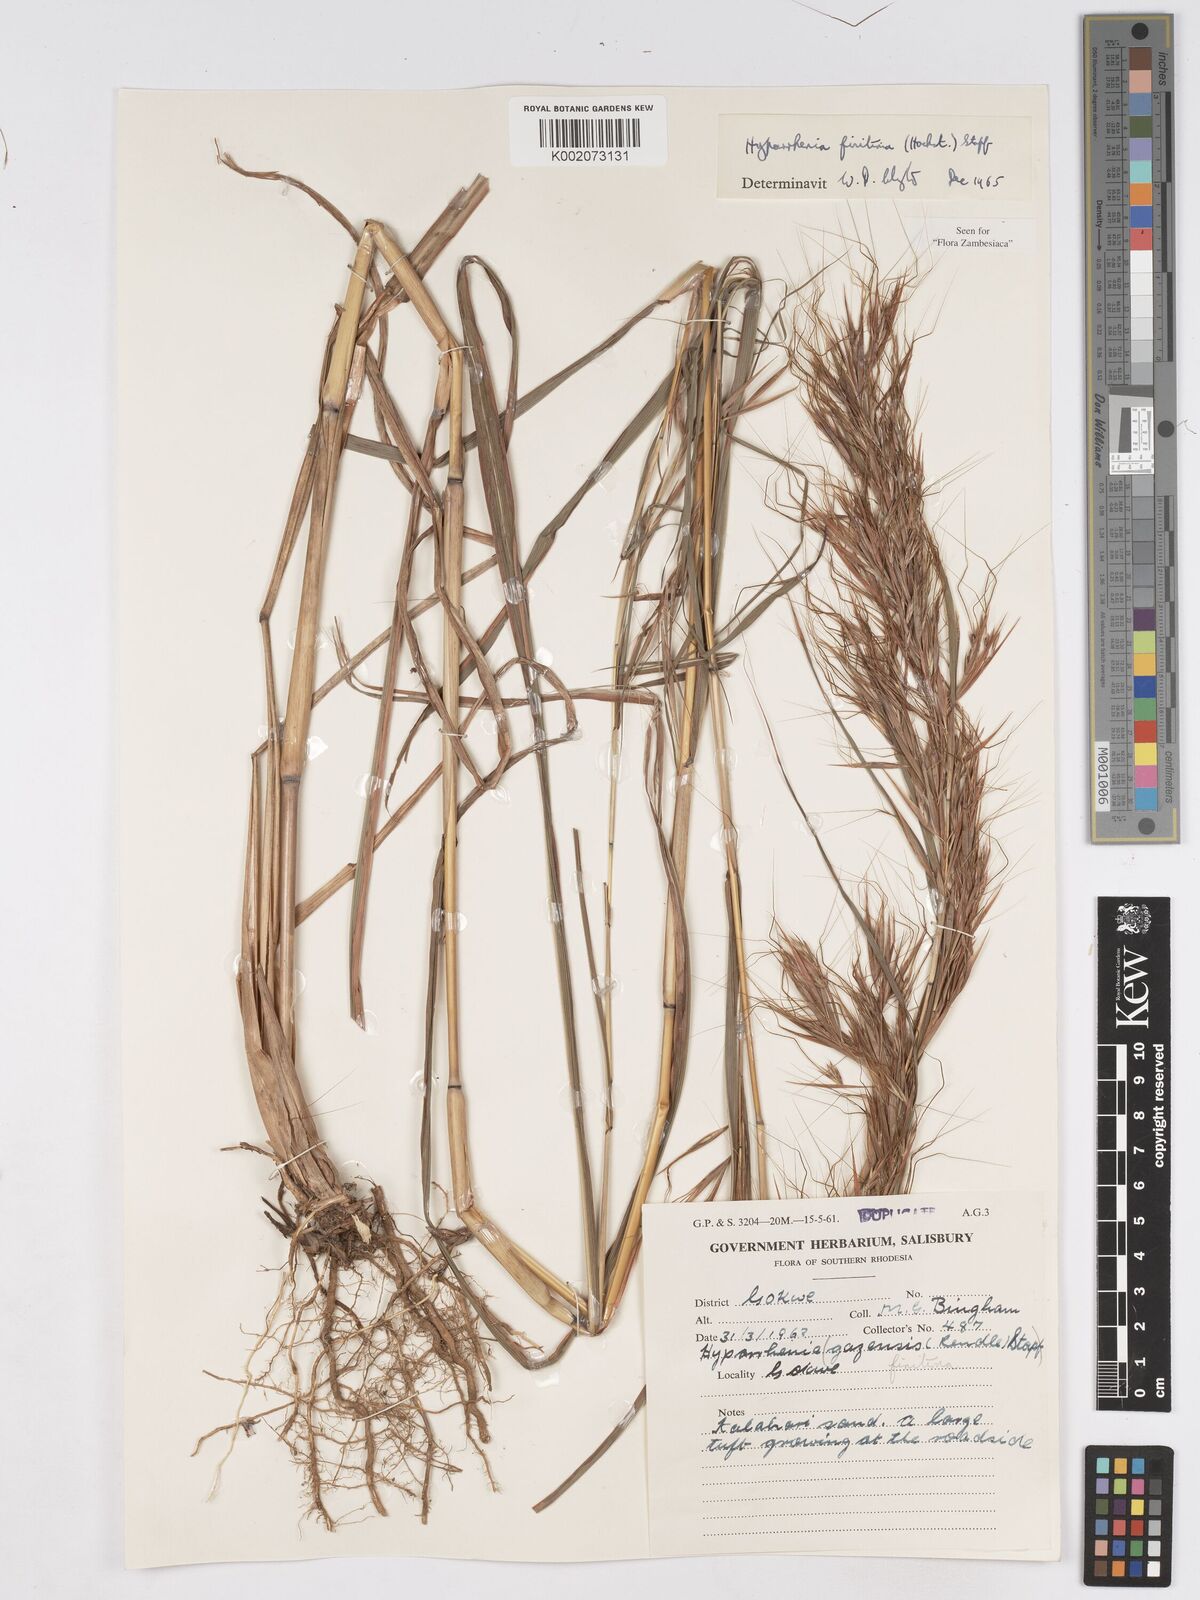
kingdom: Plantae
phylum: Tracheophyta
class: Liliopsida
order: Poales
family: Poaceae
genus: Hyparrhenia
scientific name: Hyparrhenia finitima
